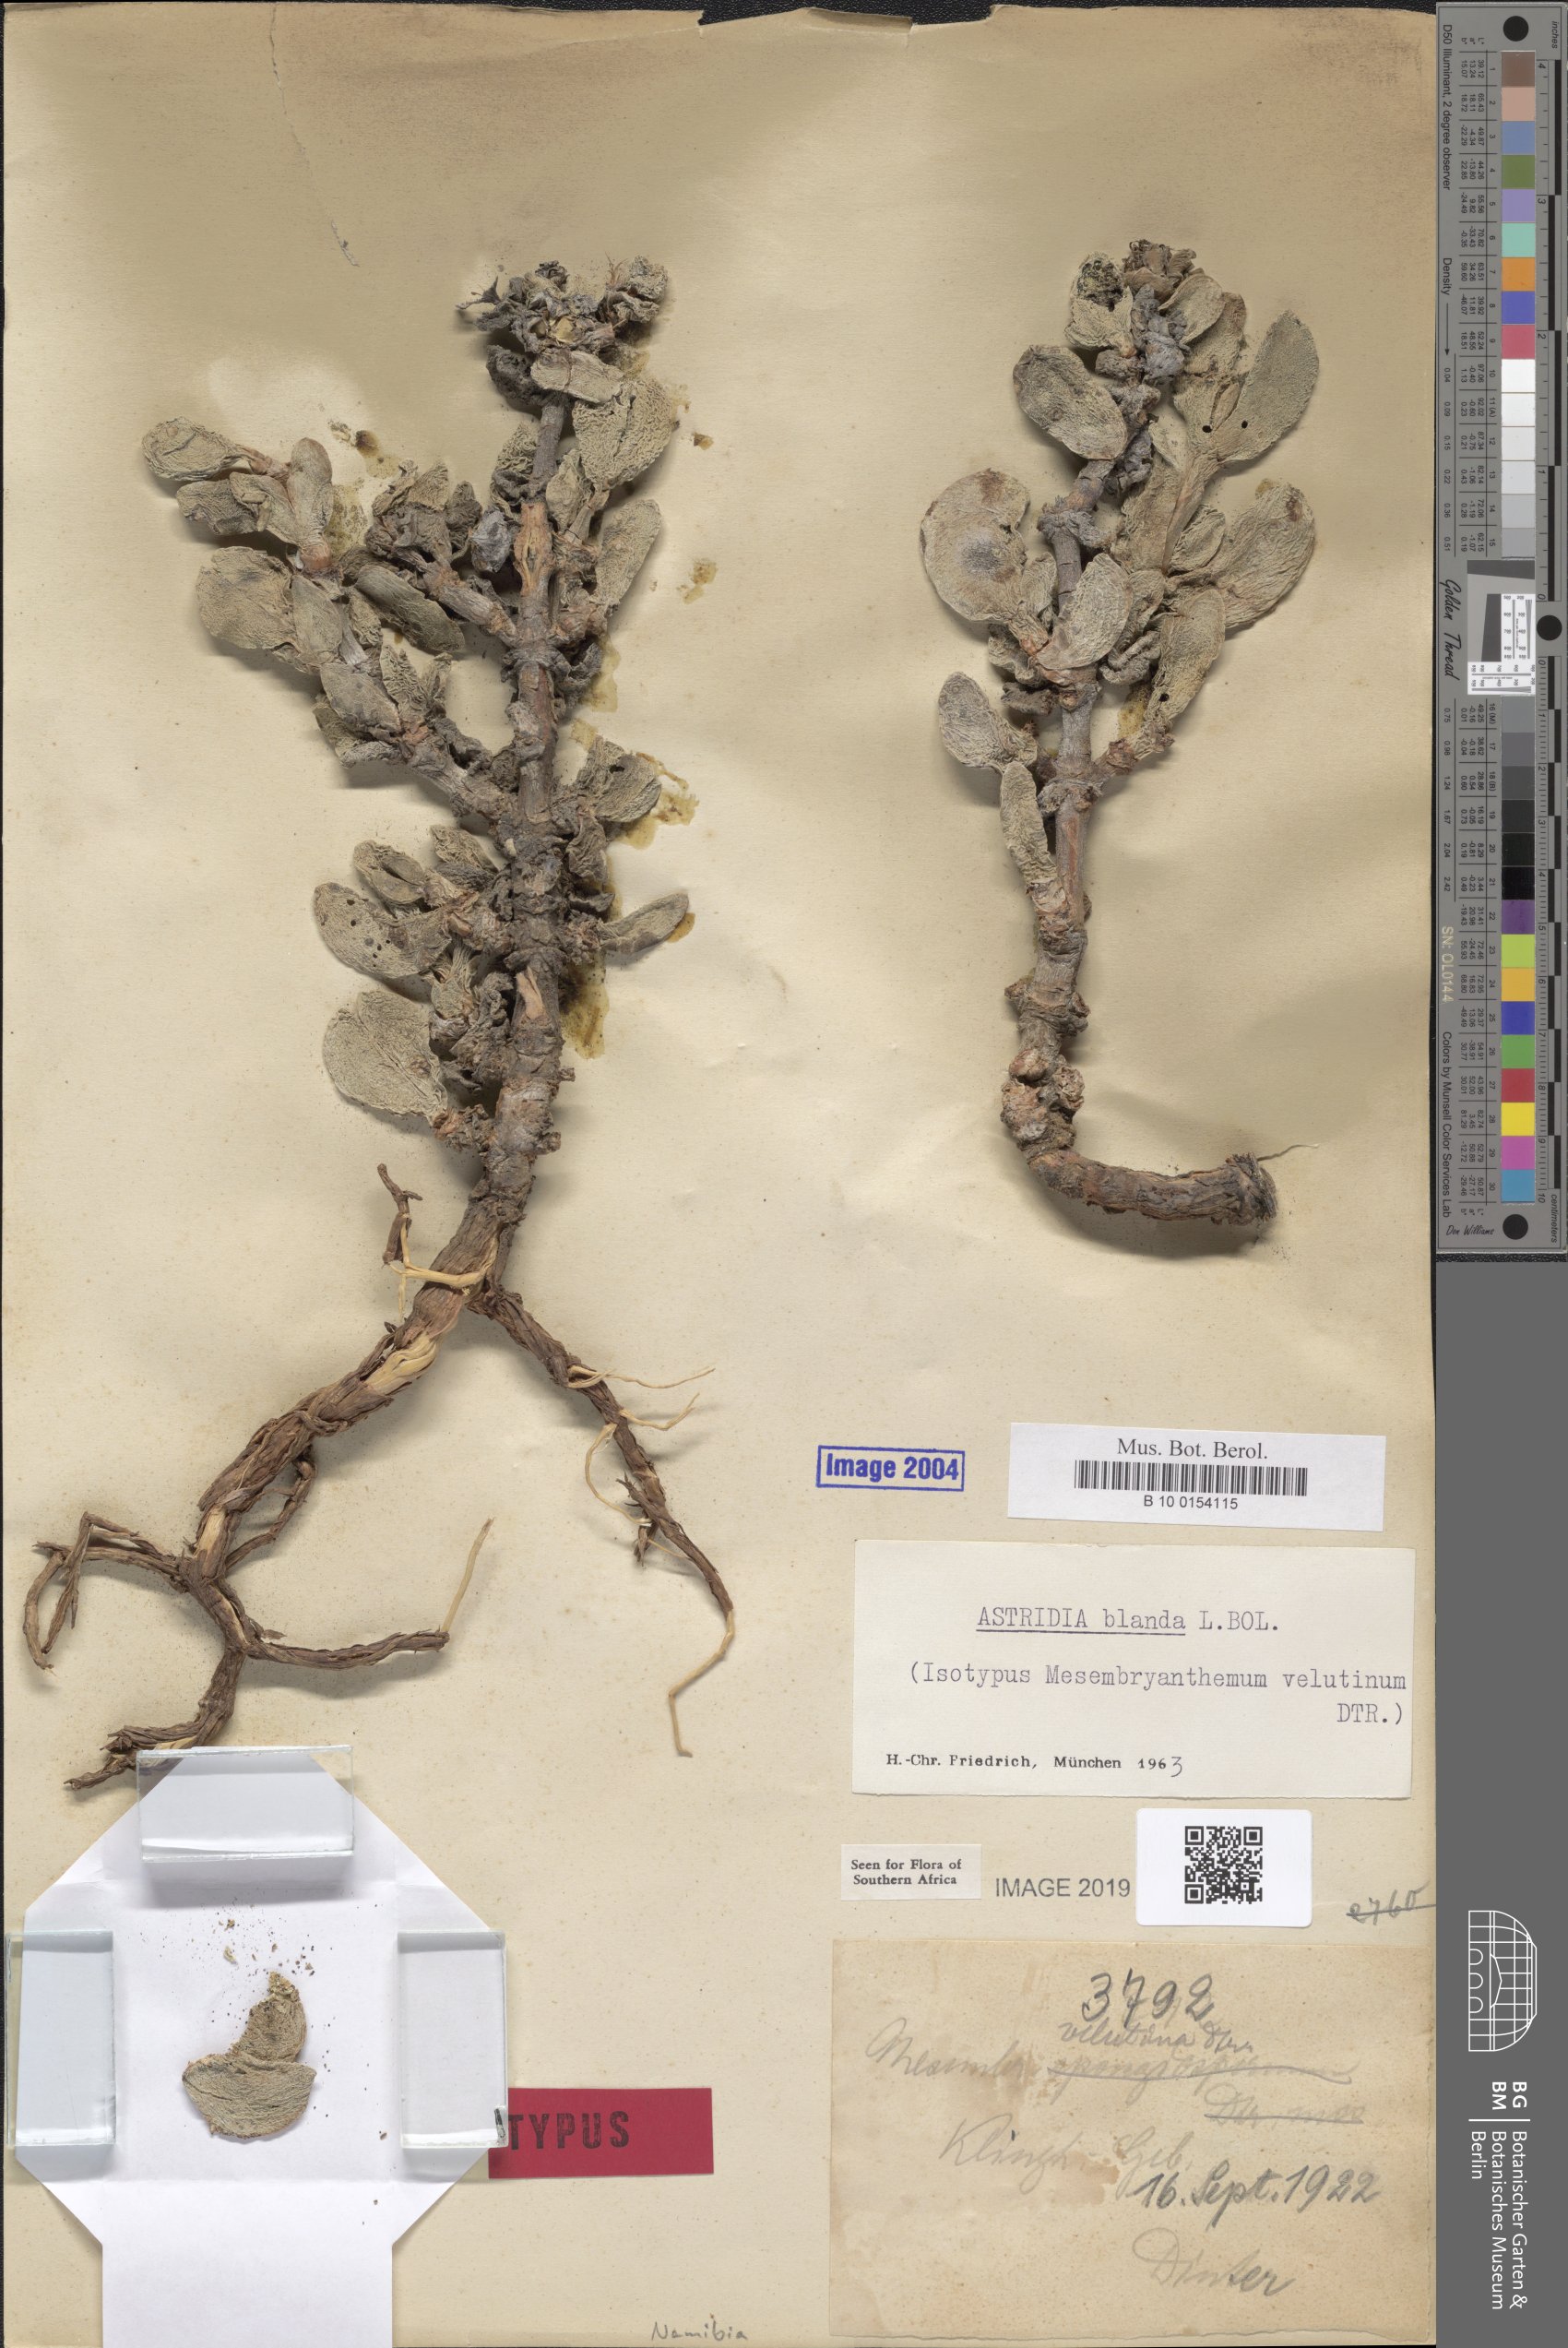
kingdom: Plantae
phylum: Tracheophyta
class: Magnoliopsida
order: Caryophyllales
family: Aizoaceae
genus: Astridia
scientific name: Astridia velutina
